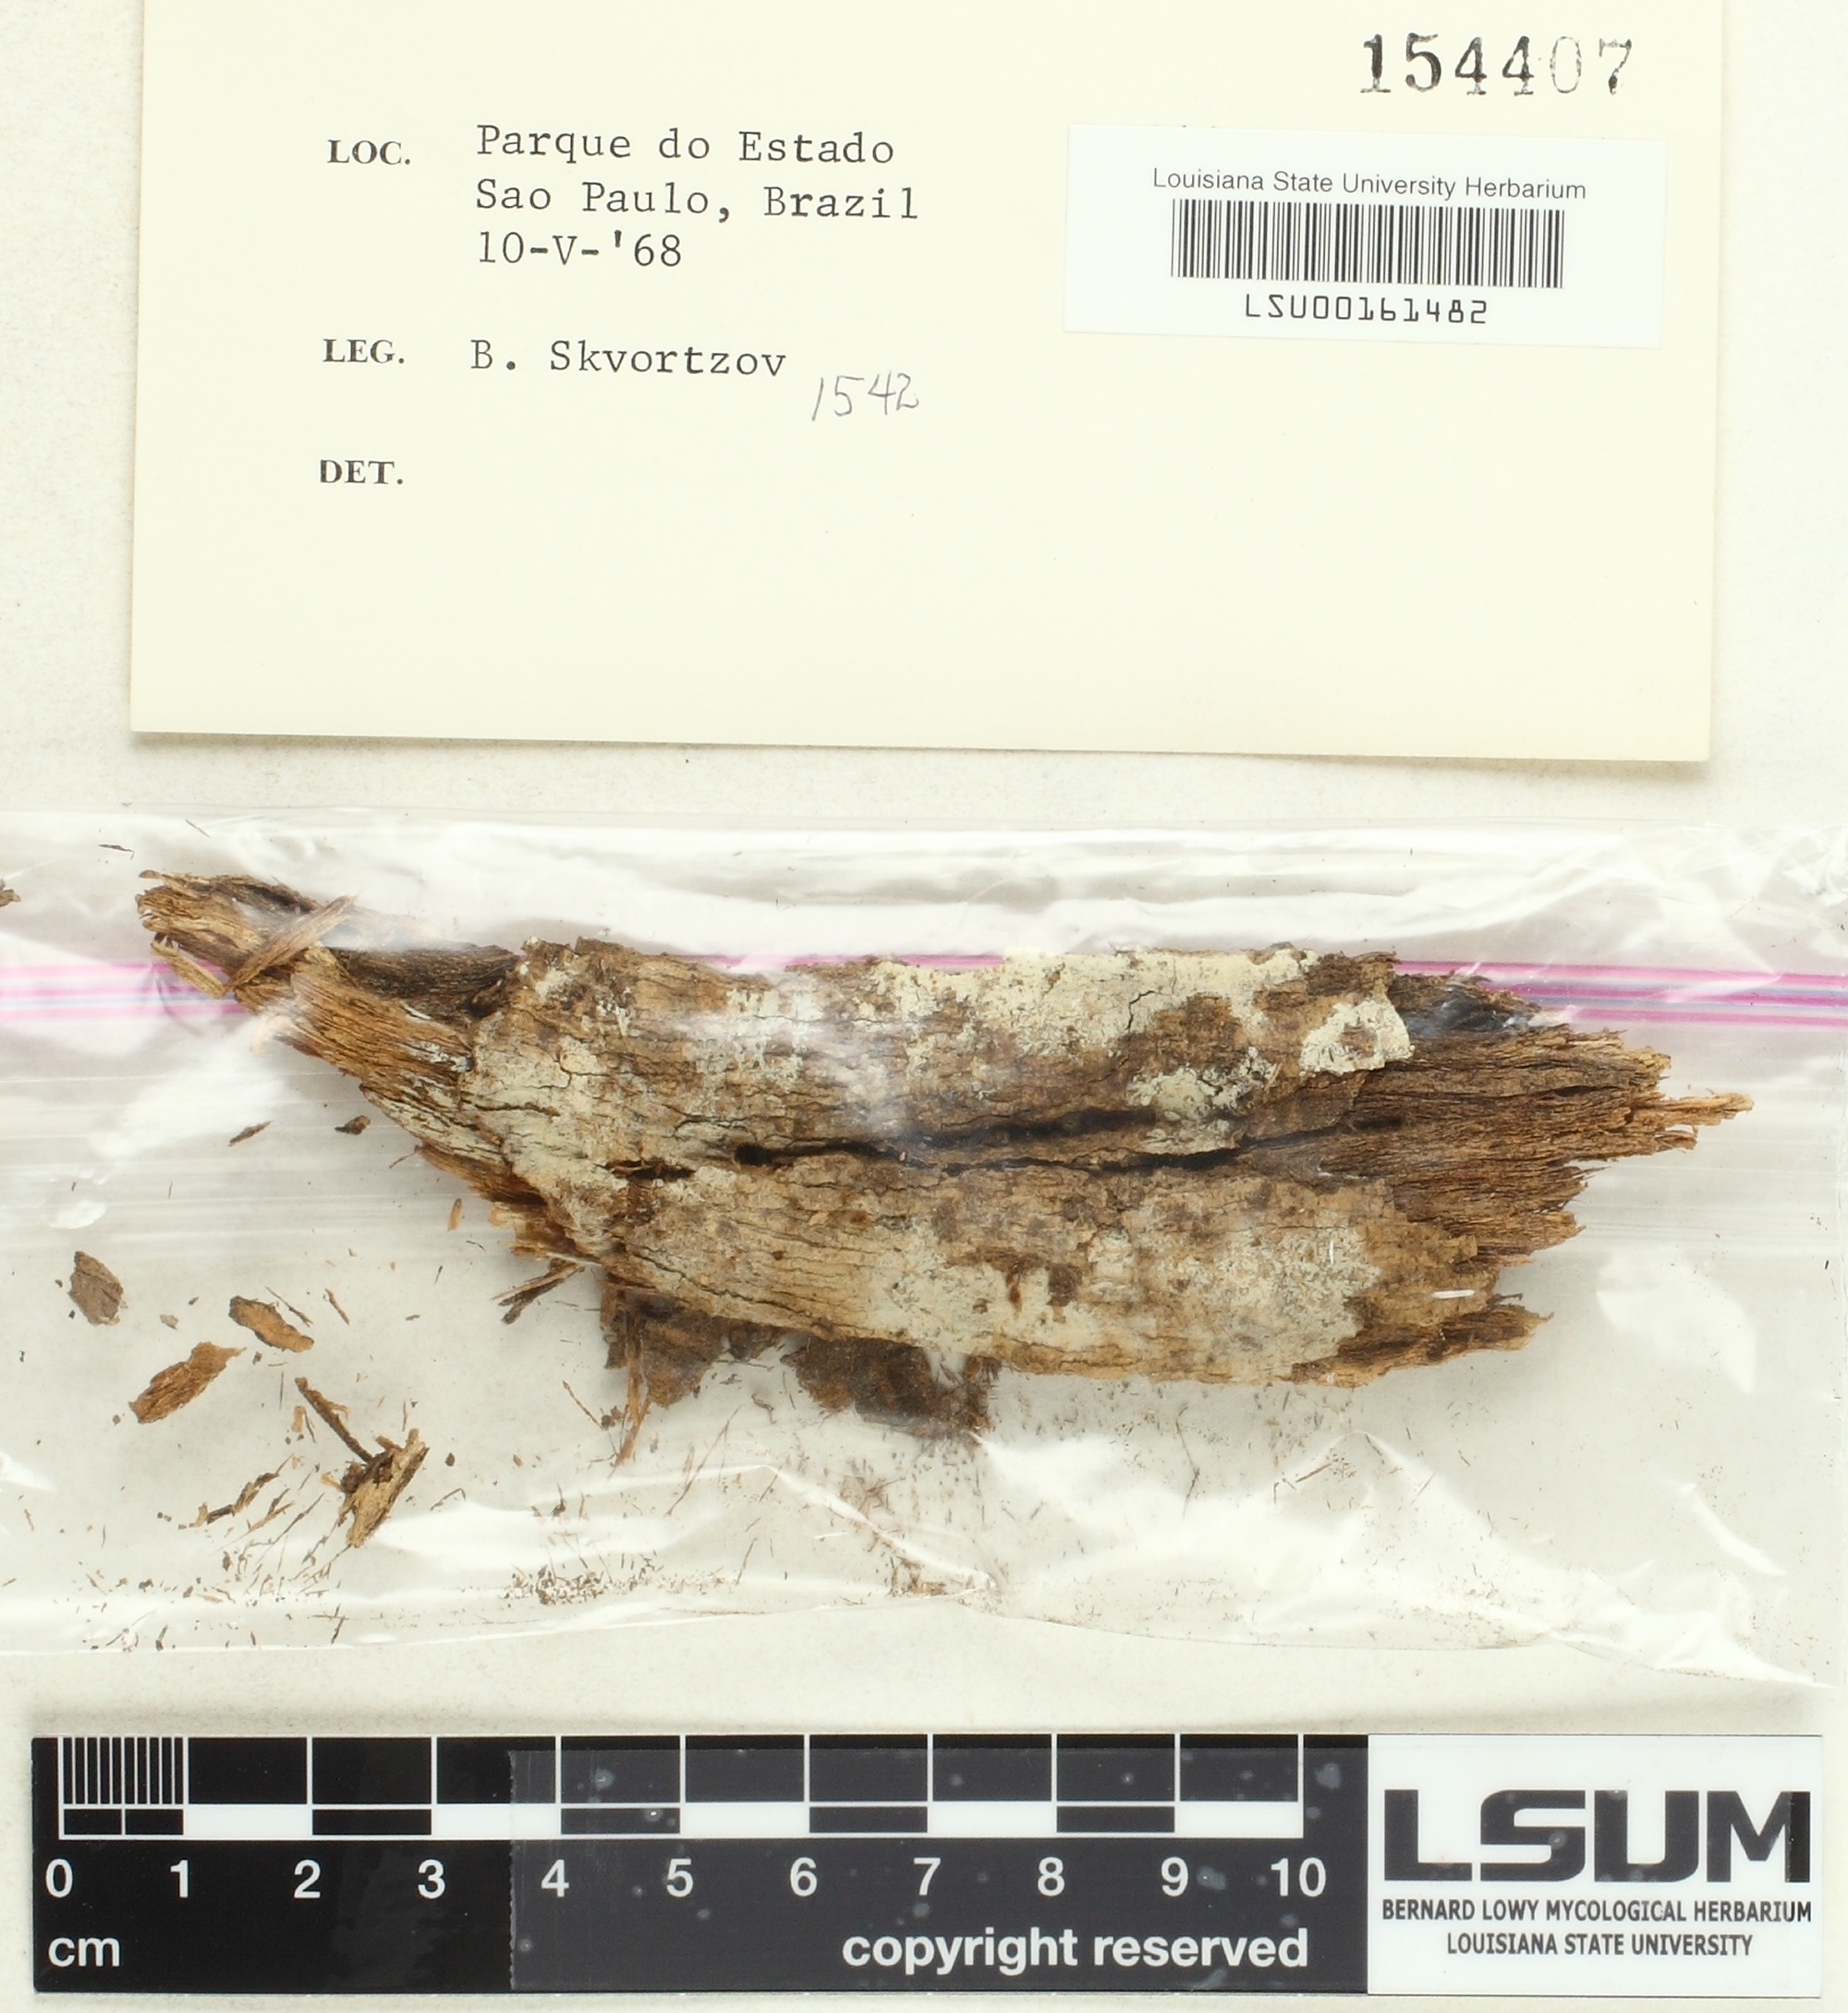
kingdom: Fungi
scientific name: Fungi
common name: Fungi
